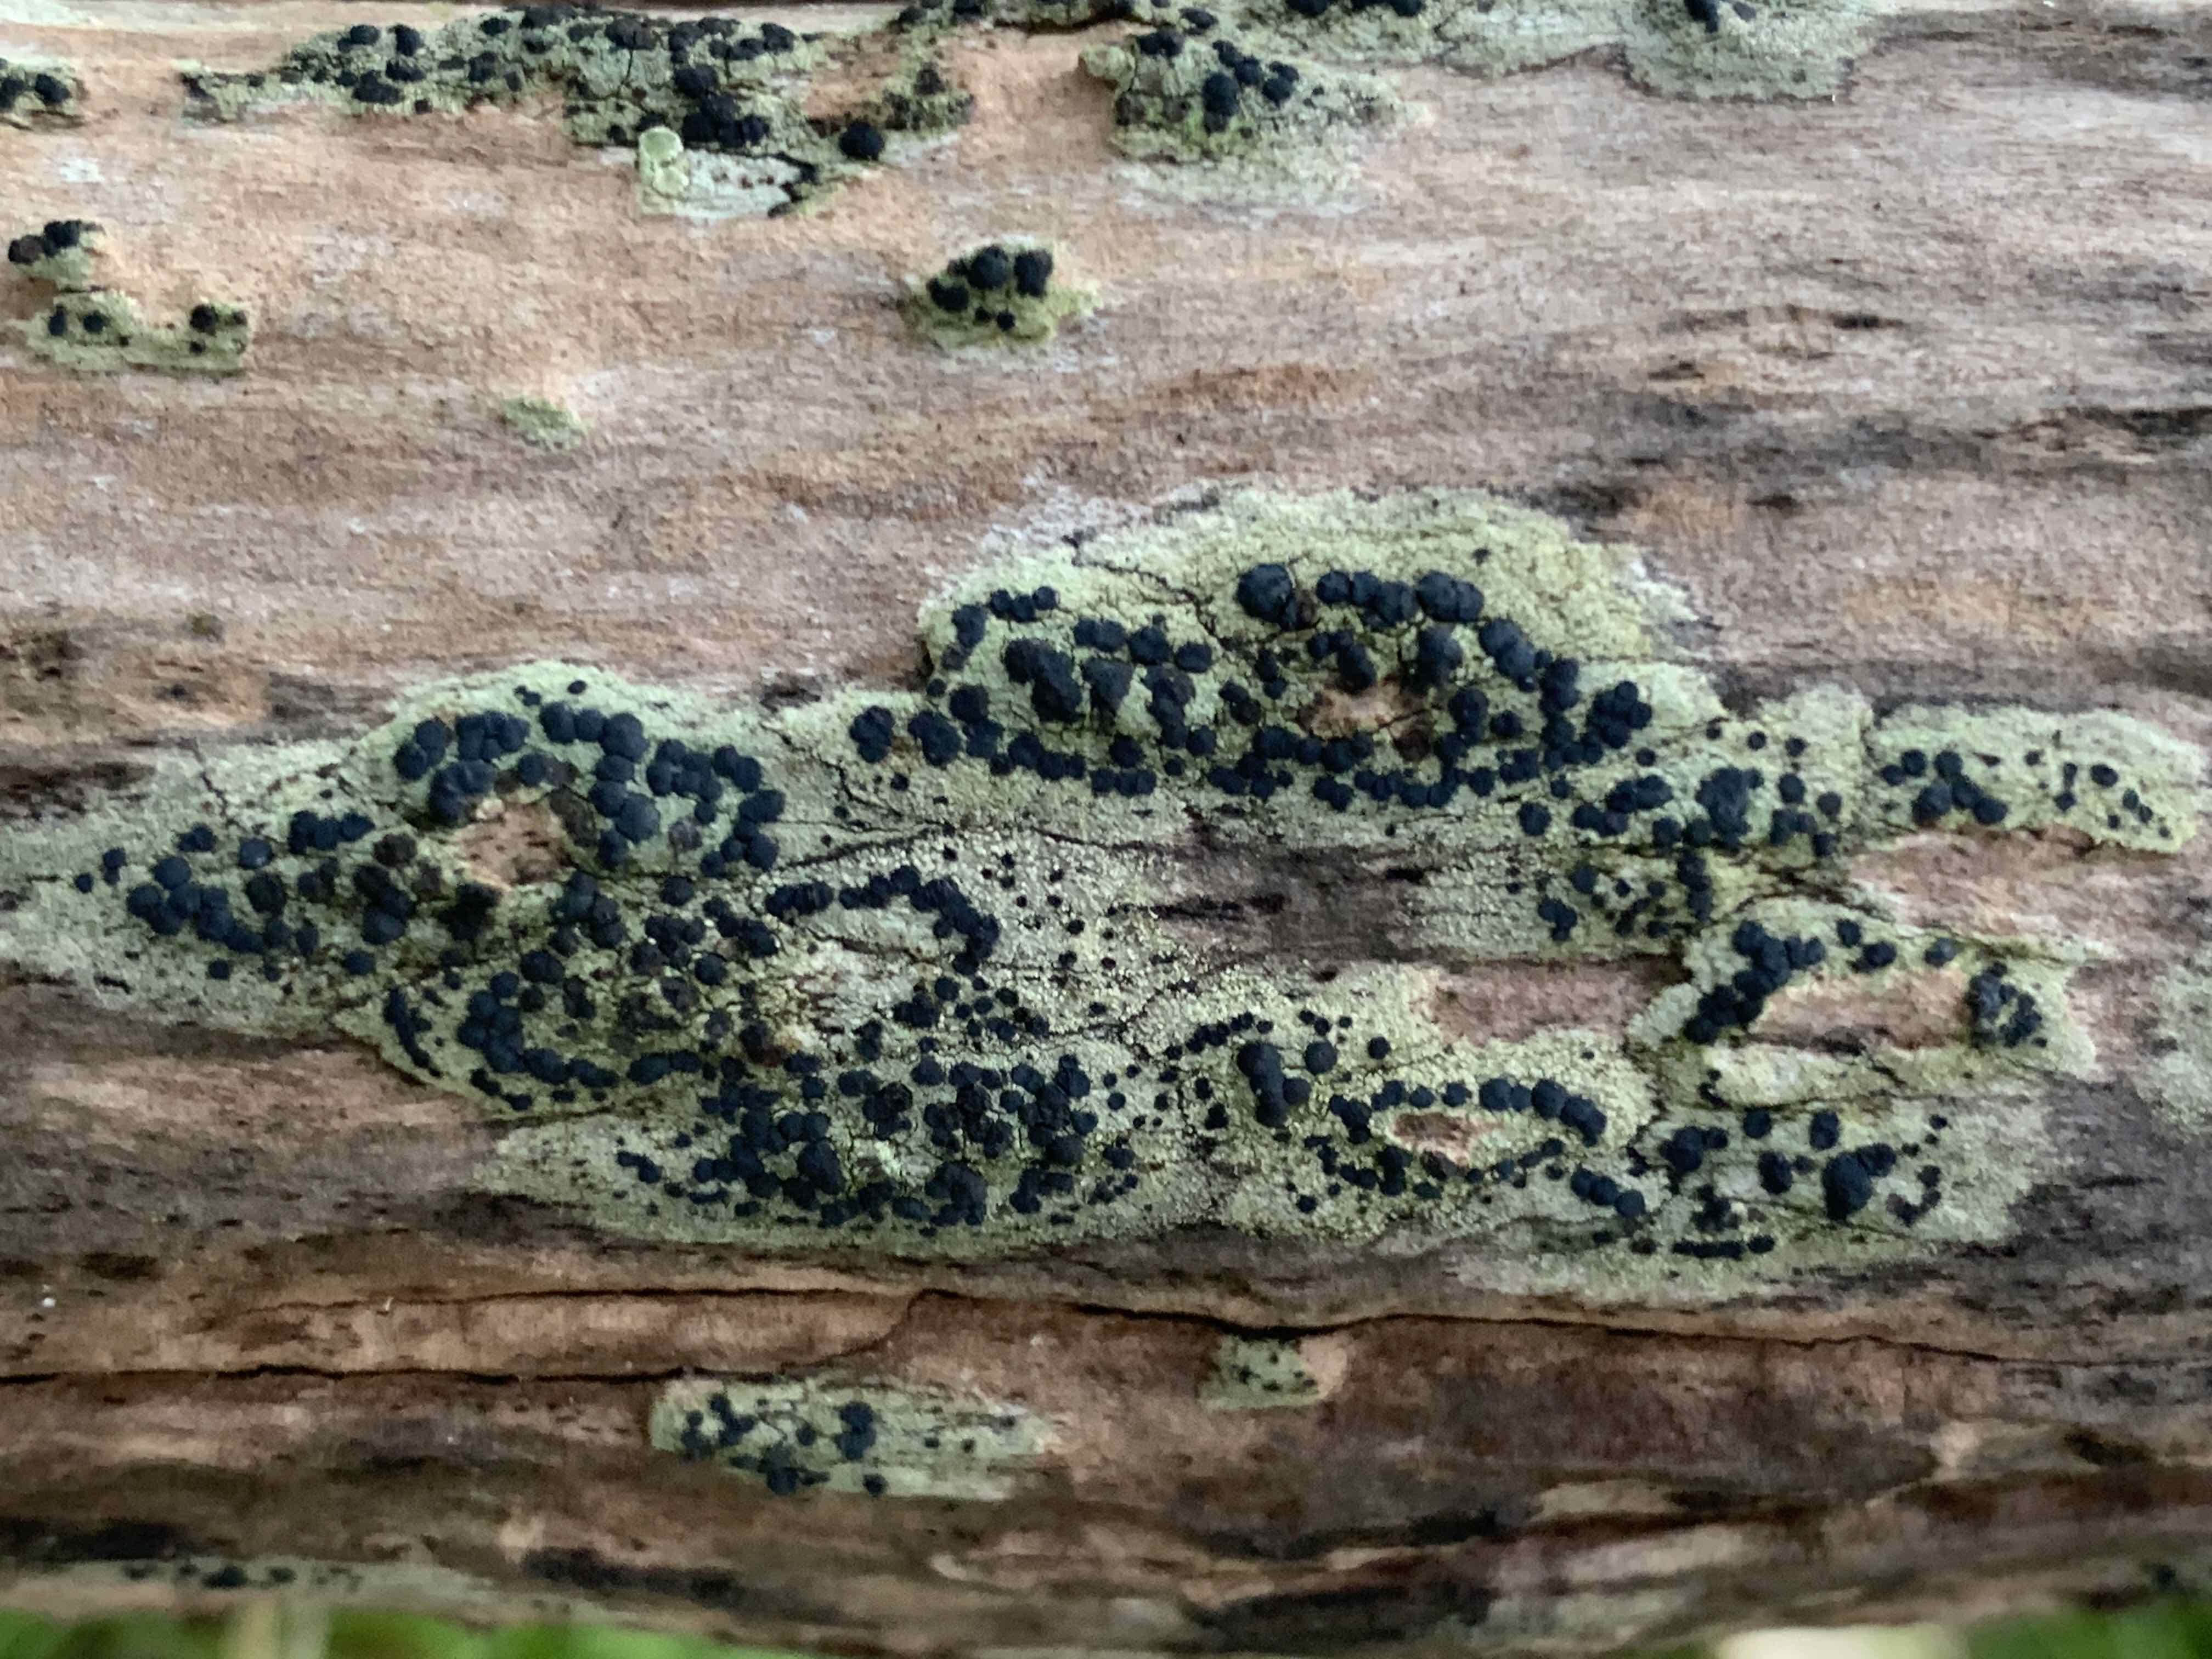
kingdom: Fungi
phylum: Ascomycota
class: Lecanoromycetes
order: Lecanorales
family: Lecanoraceae
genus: Lecidella
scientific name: Lecidella elaeochroma
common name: grågrøn skivelav
